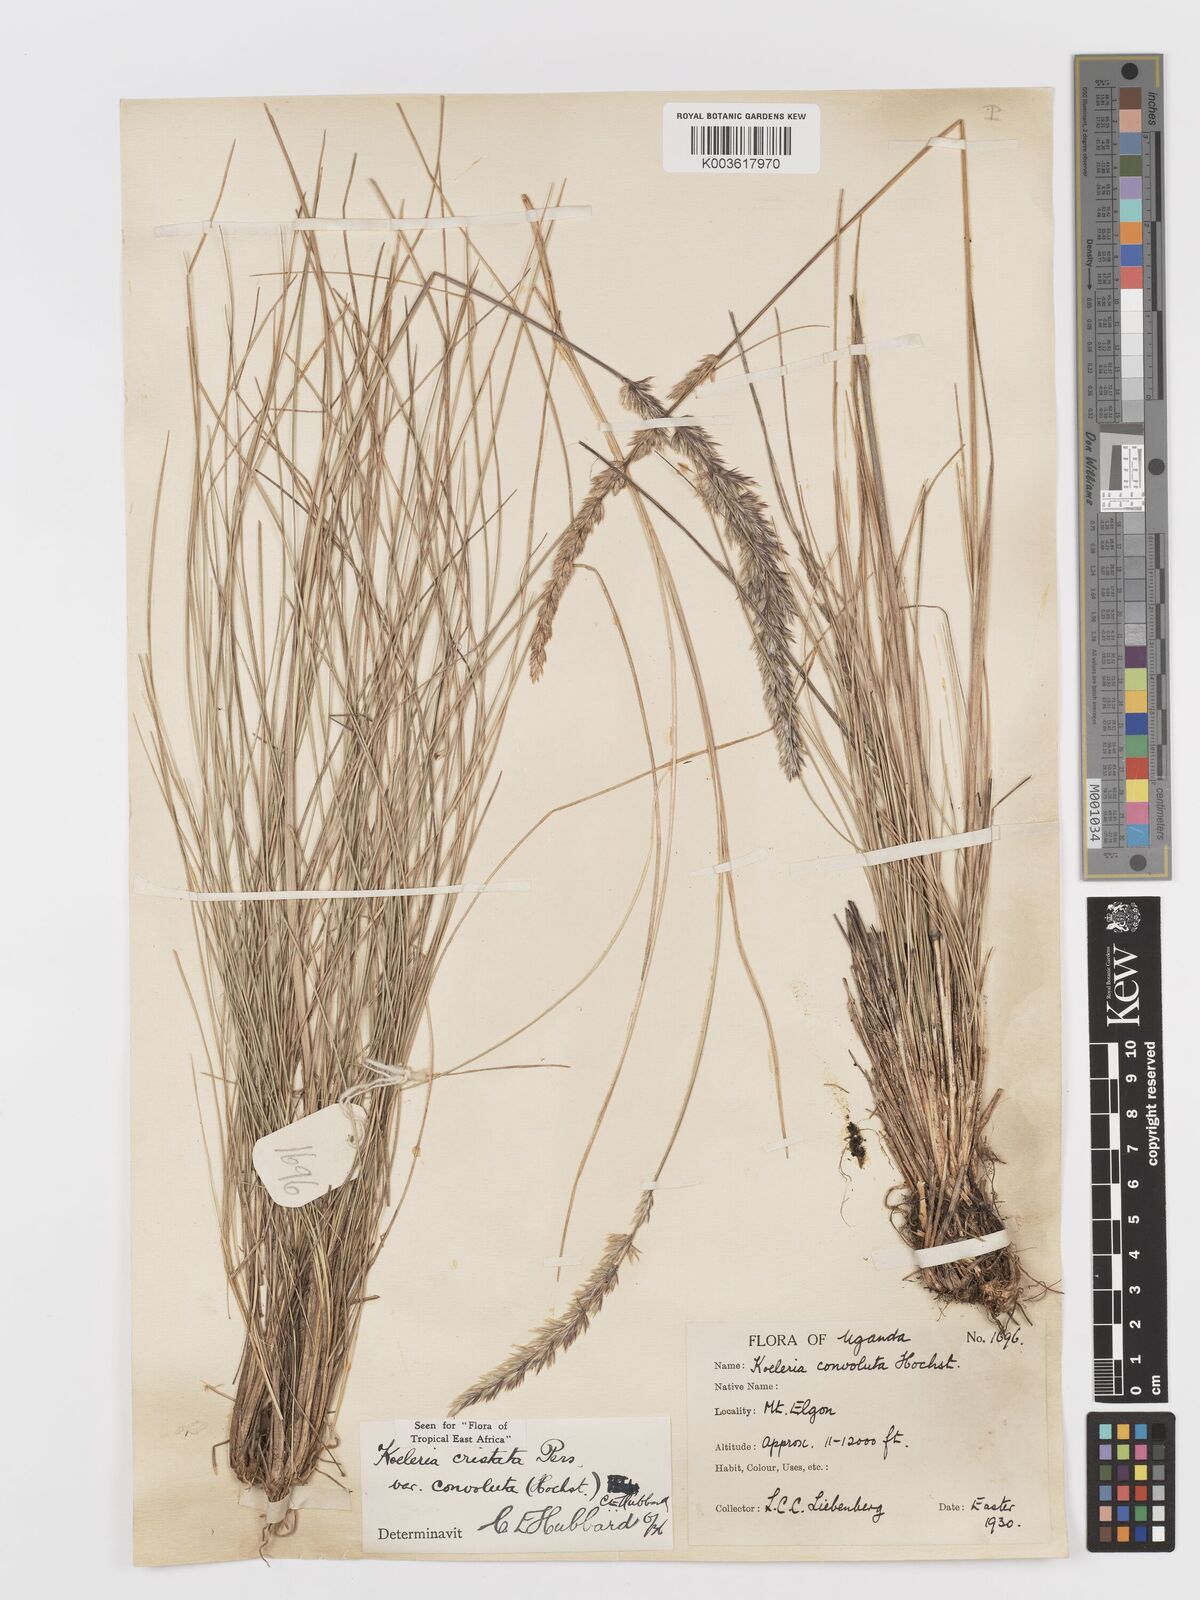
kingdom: Plantae
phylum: Tracheophyta
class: Liliopsida
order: Poales
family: Poaceae
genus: Koeleria
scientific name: Koeleria capensis
